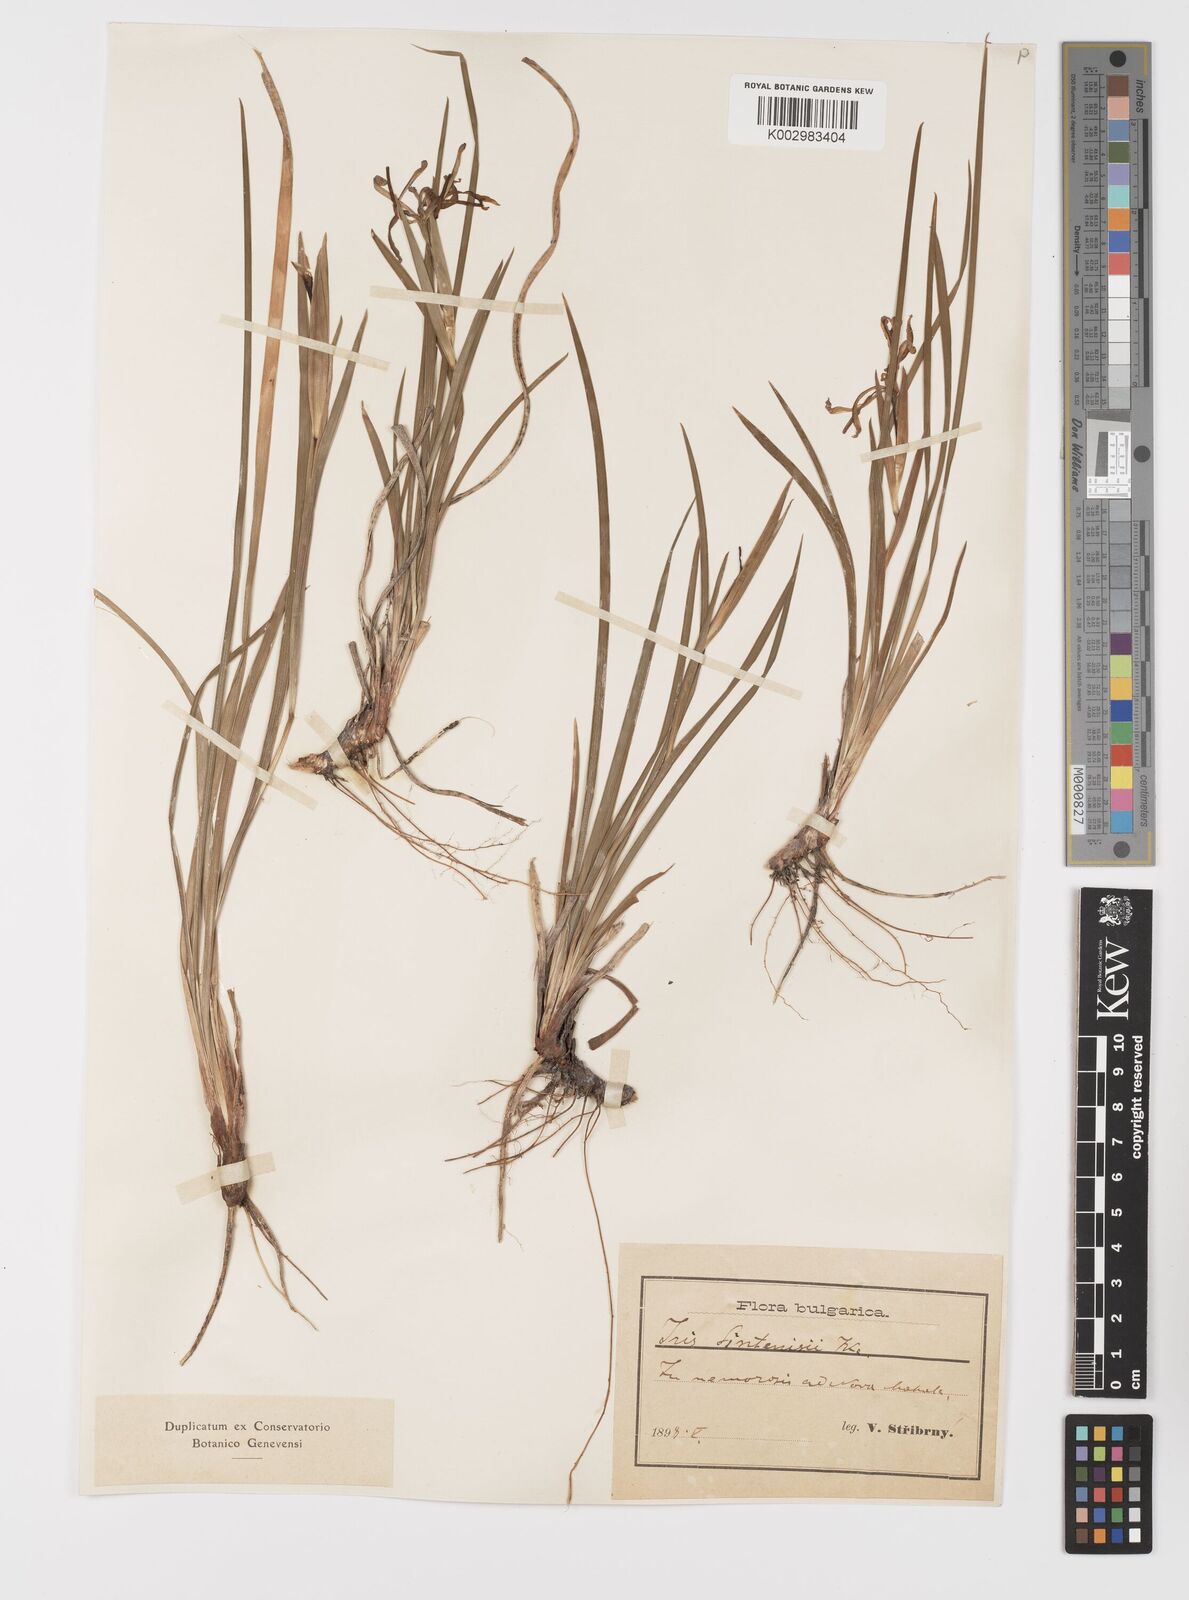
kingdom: Plantae
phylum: Tracheophyta
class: Liliopsida
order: Asparagales
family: Iridaceae
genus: Iris
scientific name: Iris sintenisii
